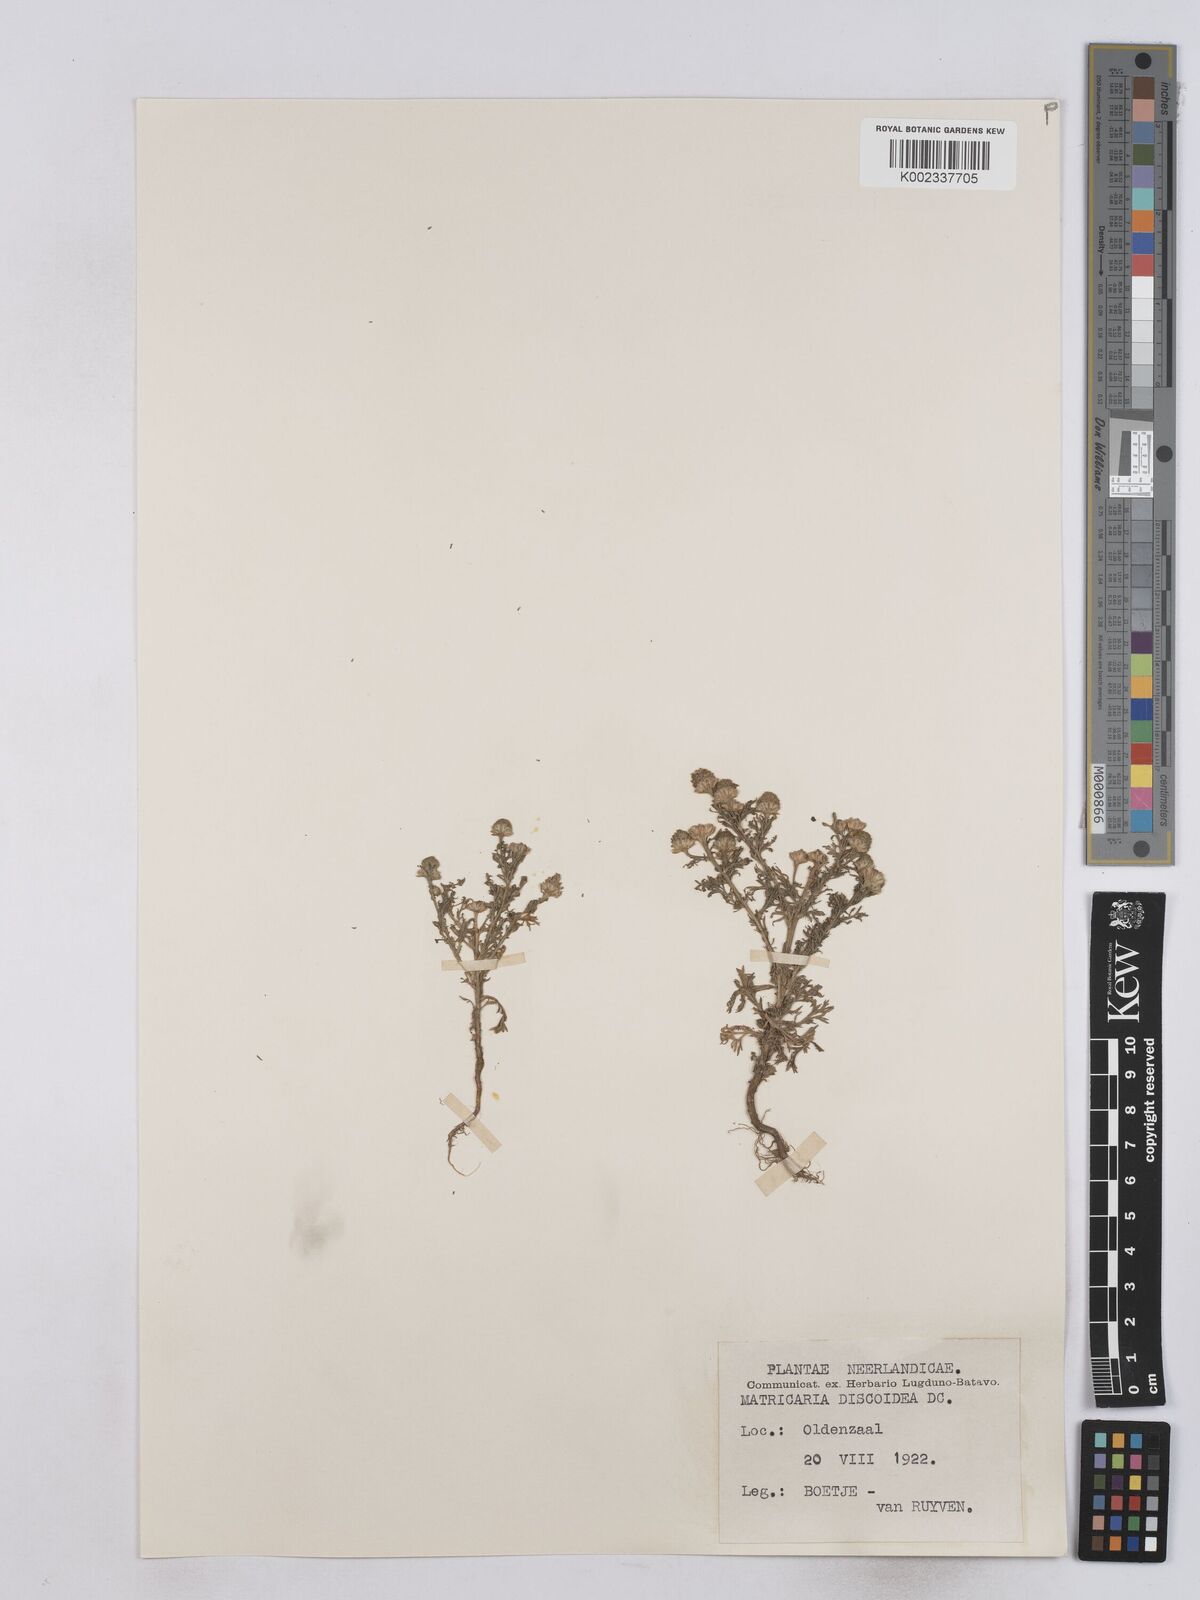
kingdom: Plantae
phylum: Tracheophyta
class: Magnoliopsida
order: Asterales
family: Asteraceae
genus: Matricaria
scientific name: Matricaria discoidea
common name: Disc mayweed
